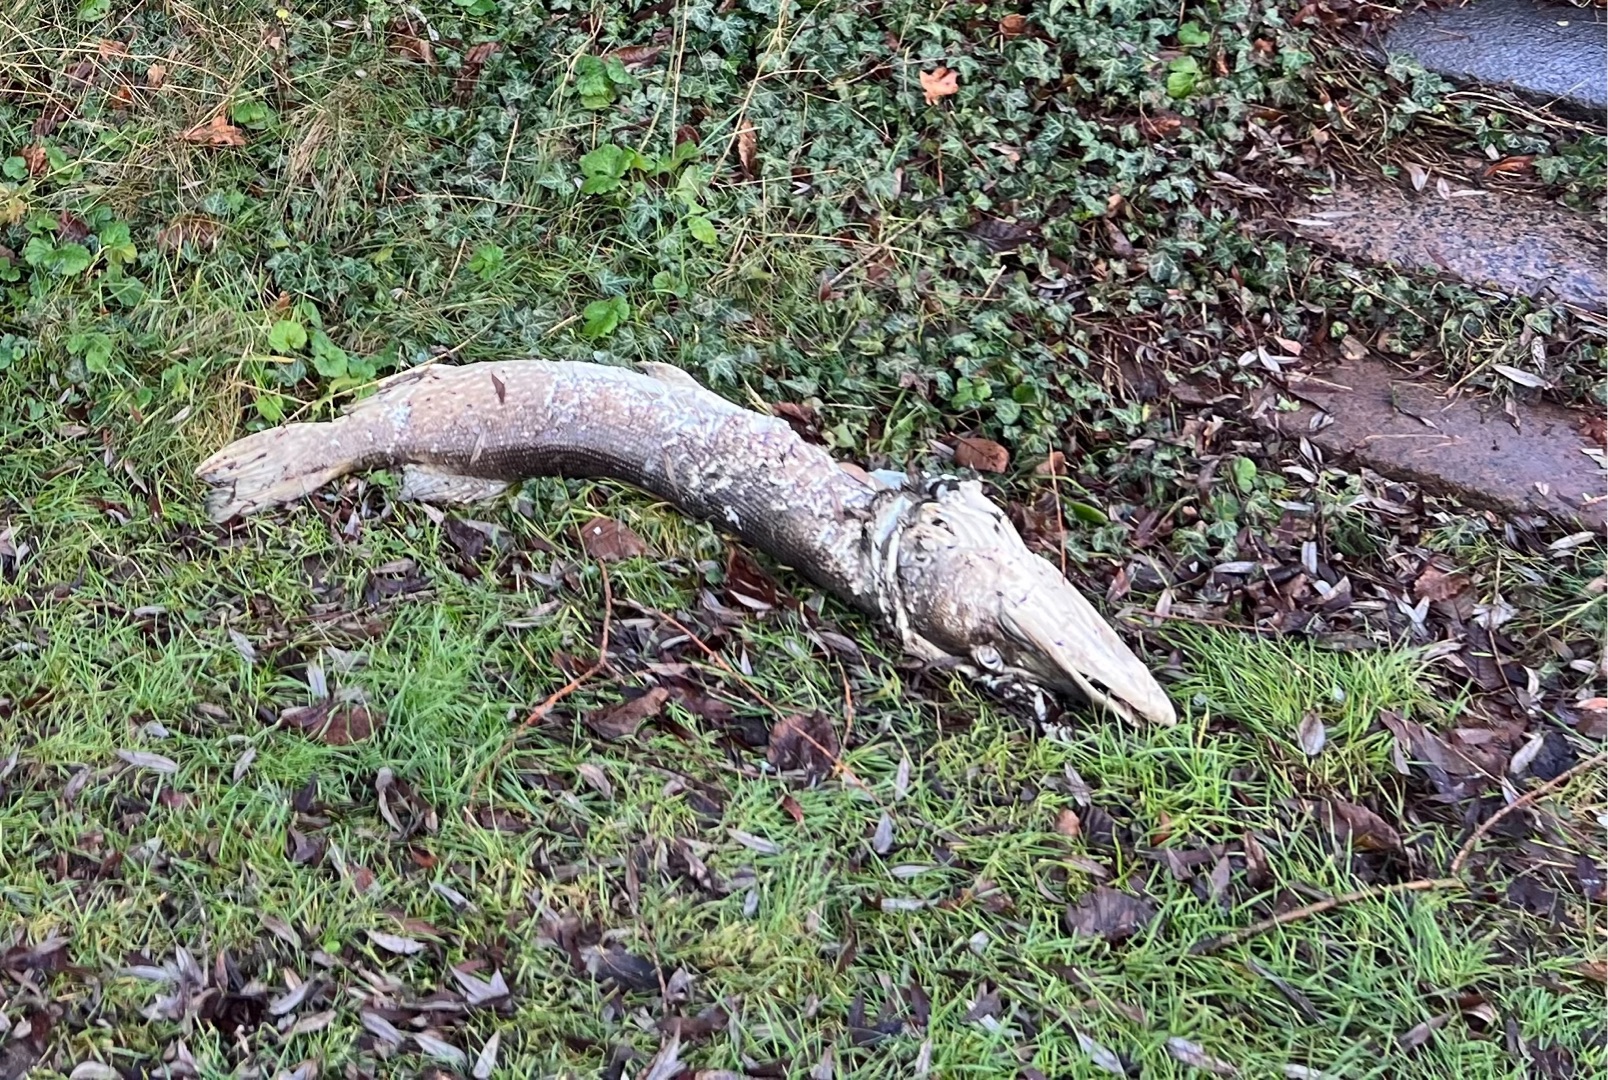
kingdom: Animalia
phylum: Chordata
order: Esociformes
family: Esocidae
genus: Esox
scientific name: Esox lucius
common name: Gedde
